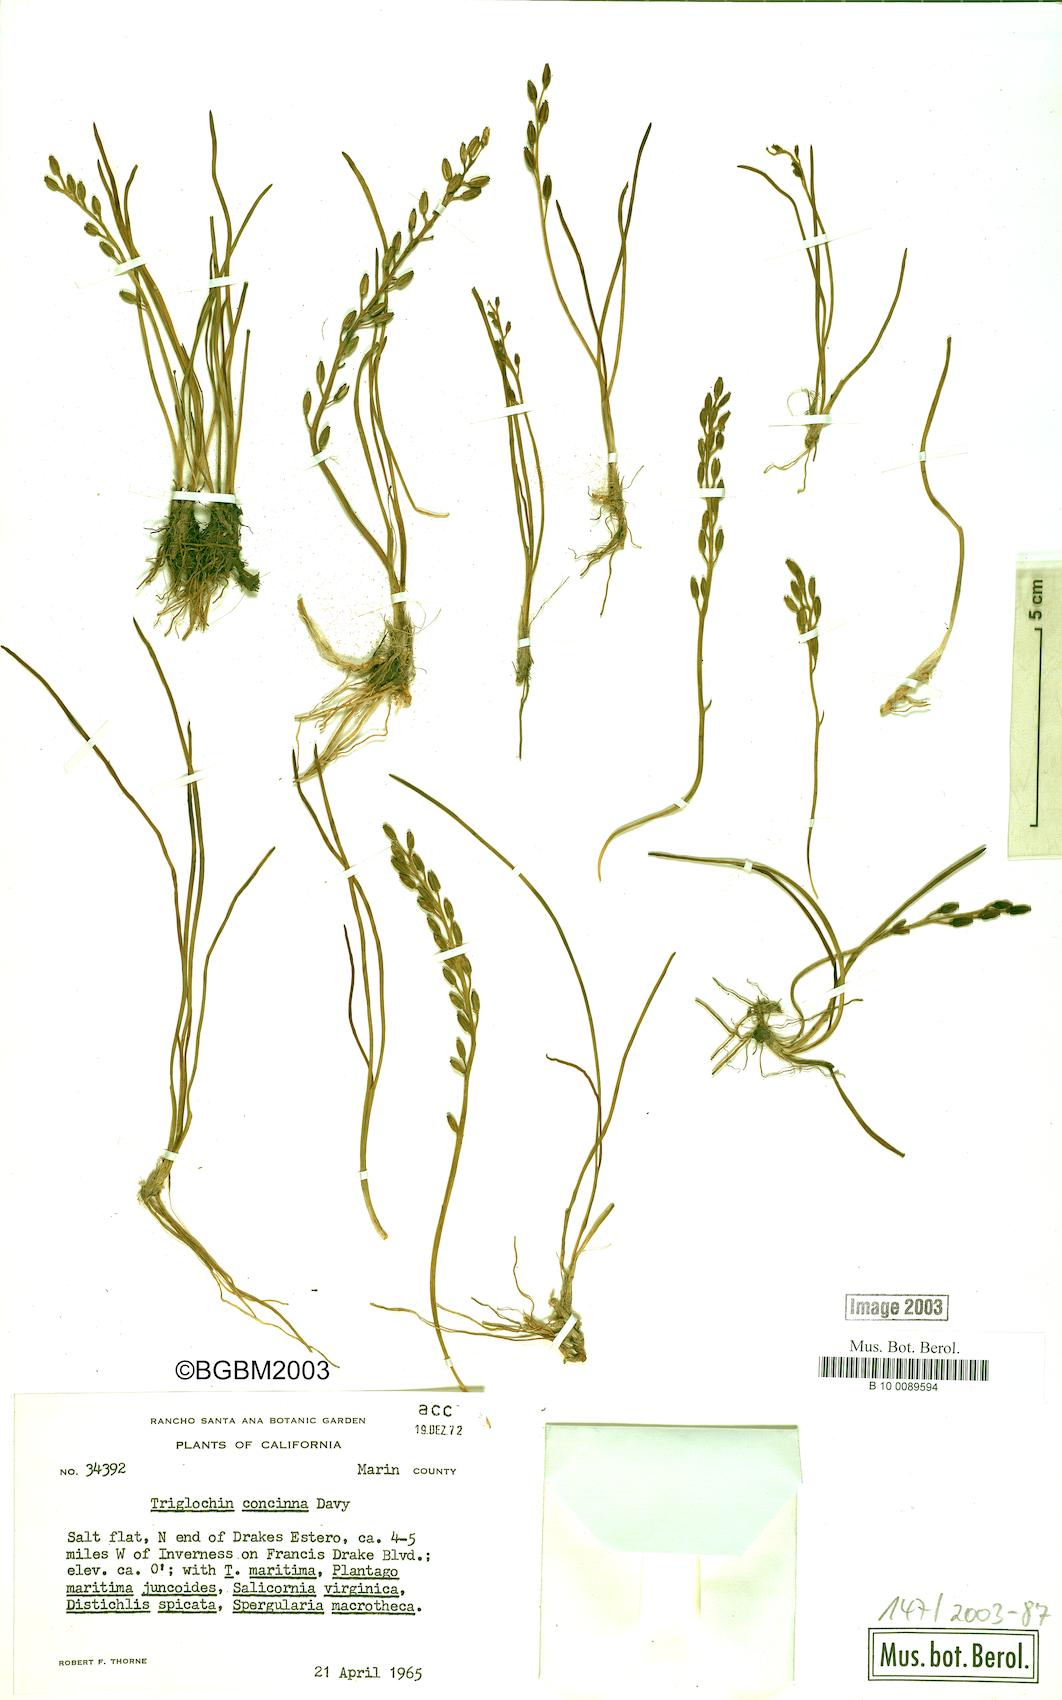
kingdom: Plantae
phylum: Tracheophyta
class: Liliopsida
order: Alismatales
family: Juncaginaceae
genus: Triglochin
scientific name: Triglochin maritima
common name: Sea arrowgrass
